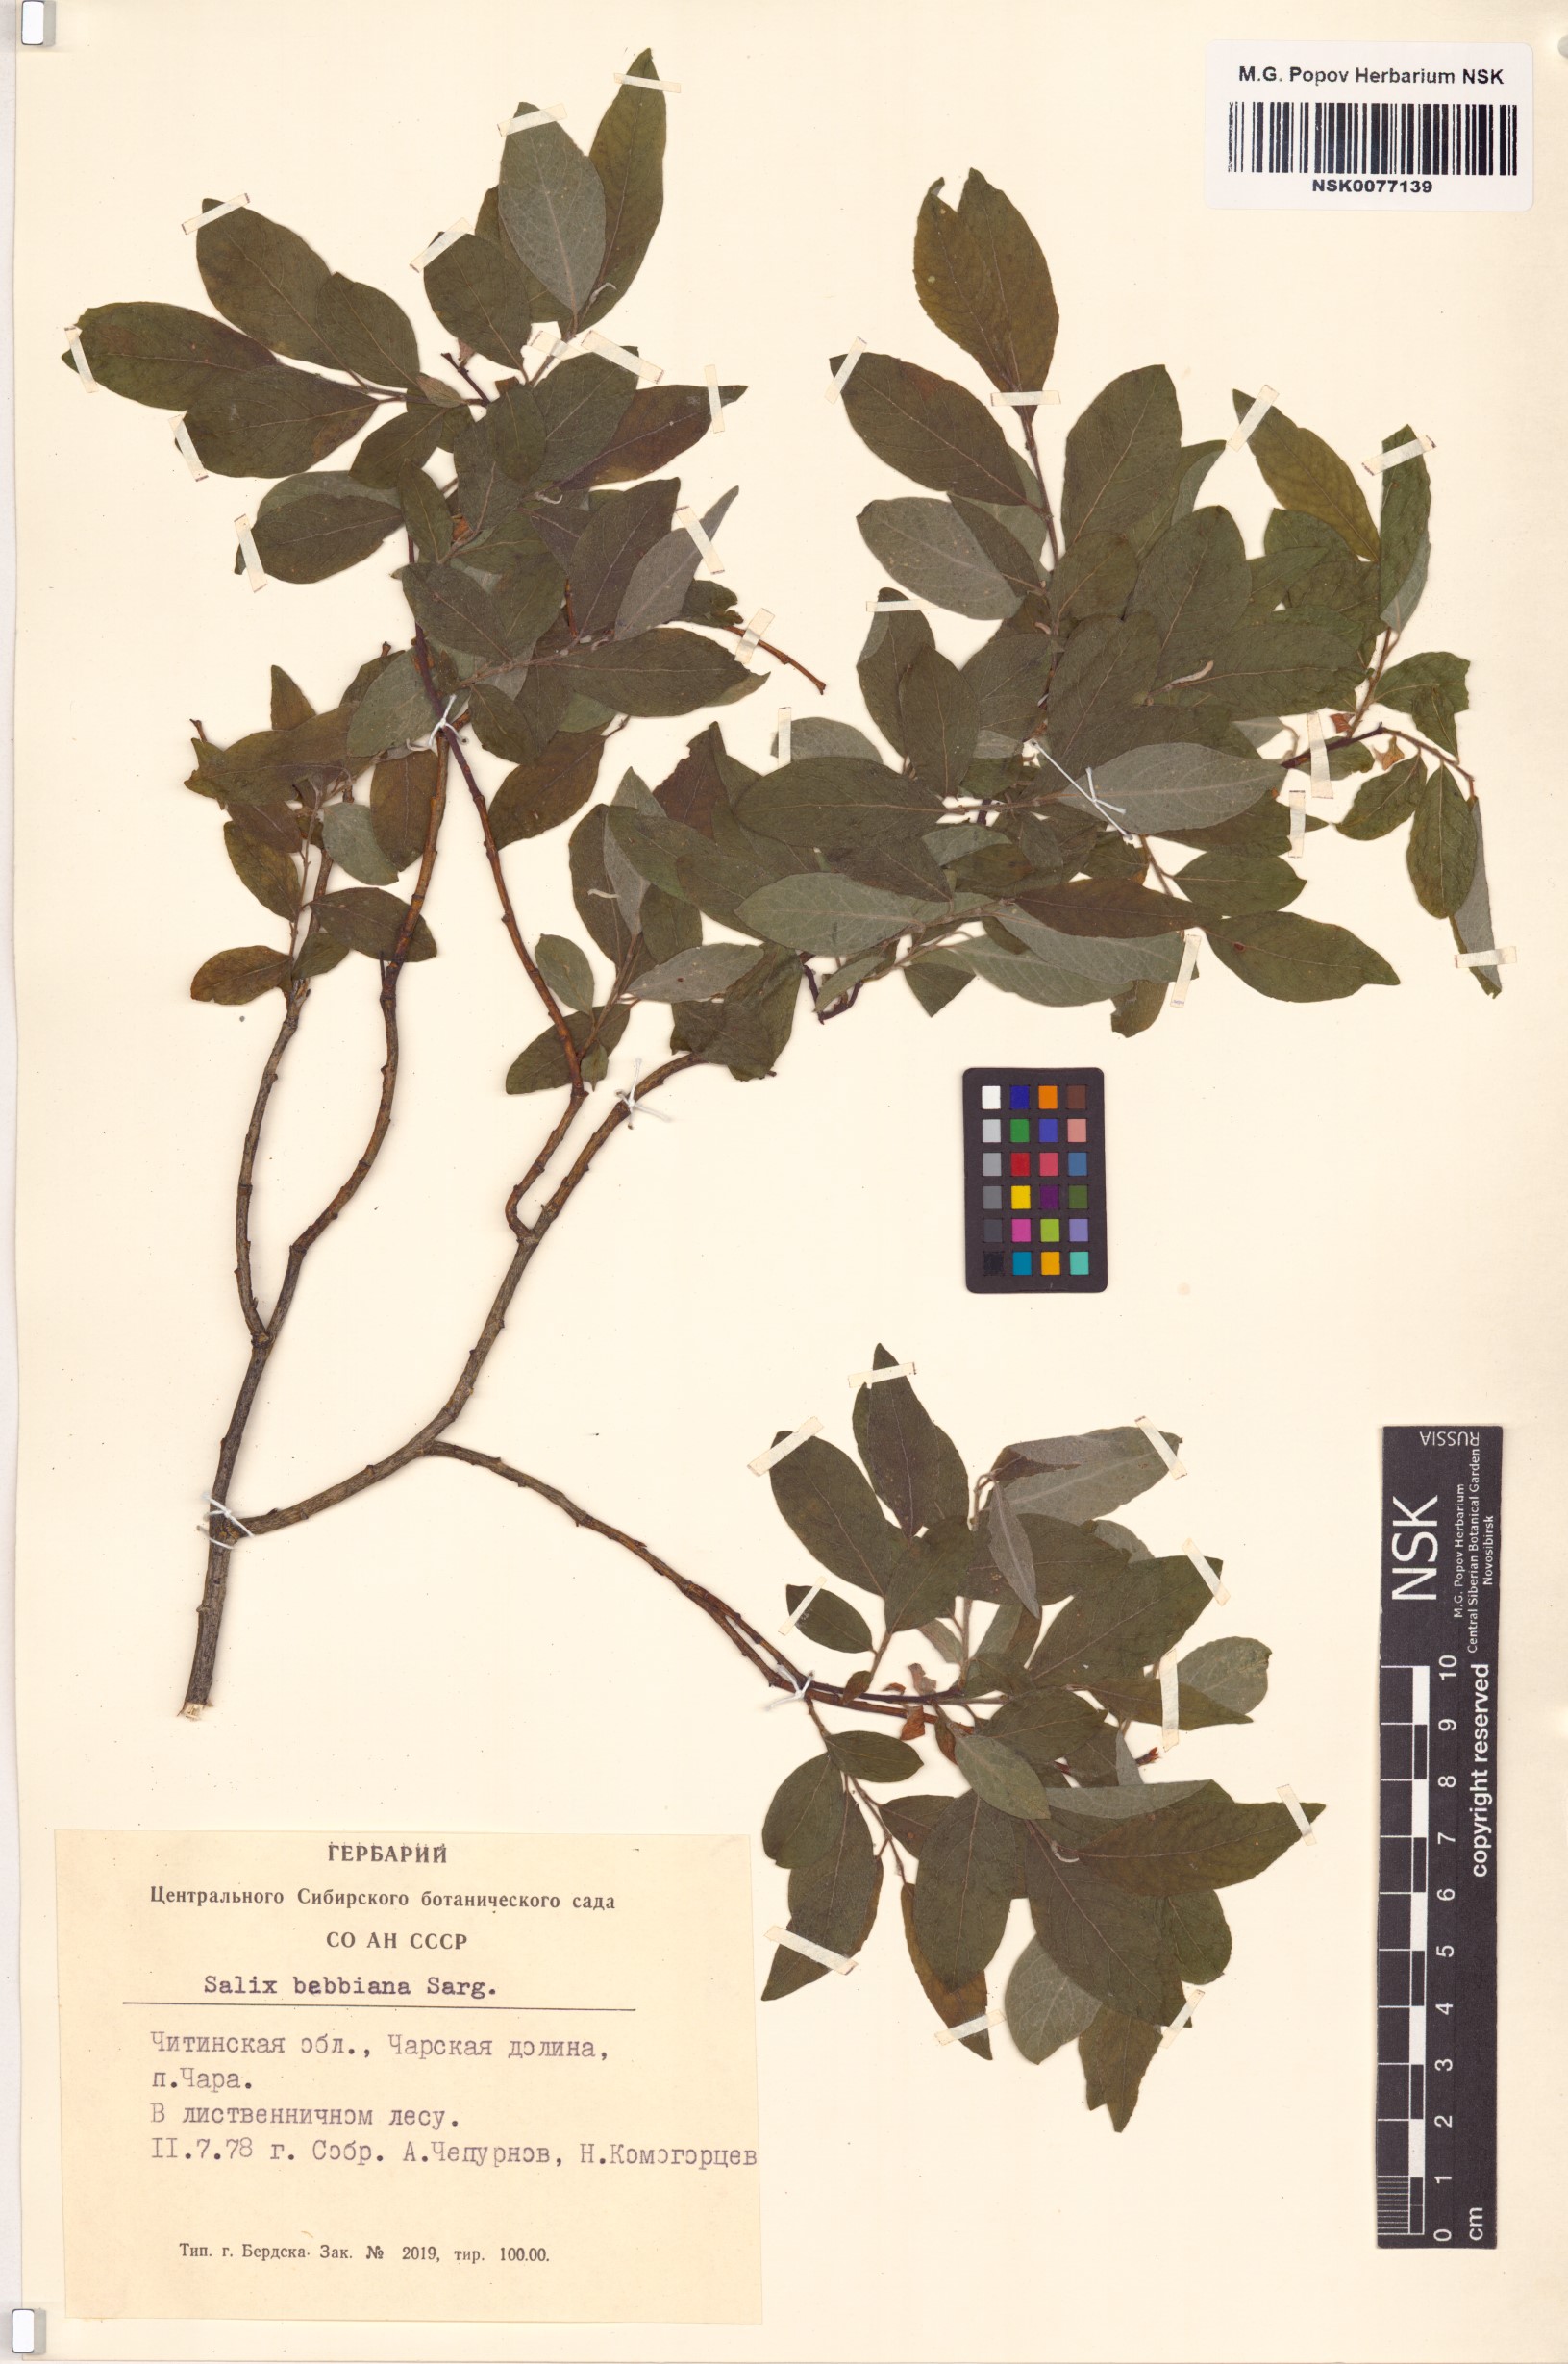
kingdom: Plantae
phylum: Tracheophyta
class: Magnoliopsida
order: Malpighiales
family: Salicaceae
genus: Salix
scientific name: Salix bebbiana
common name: Bebb's willow
